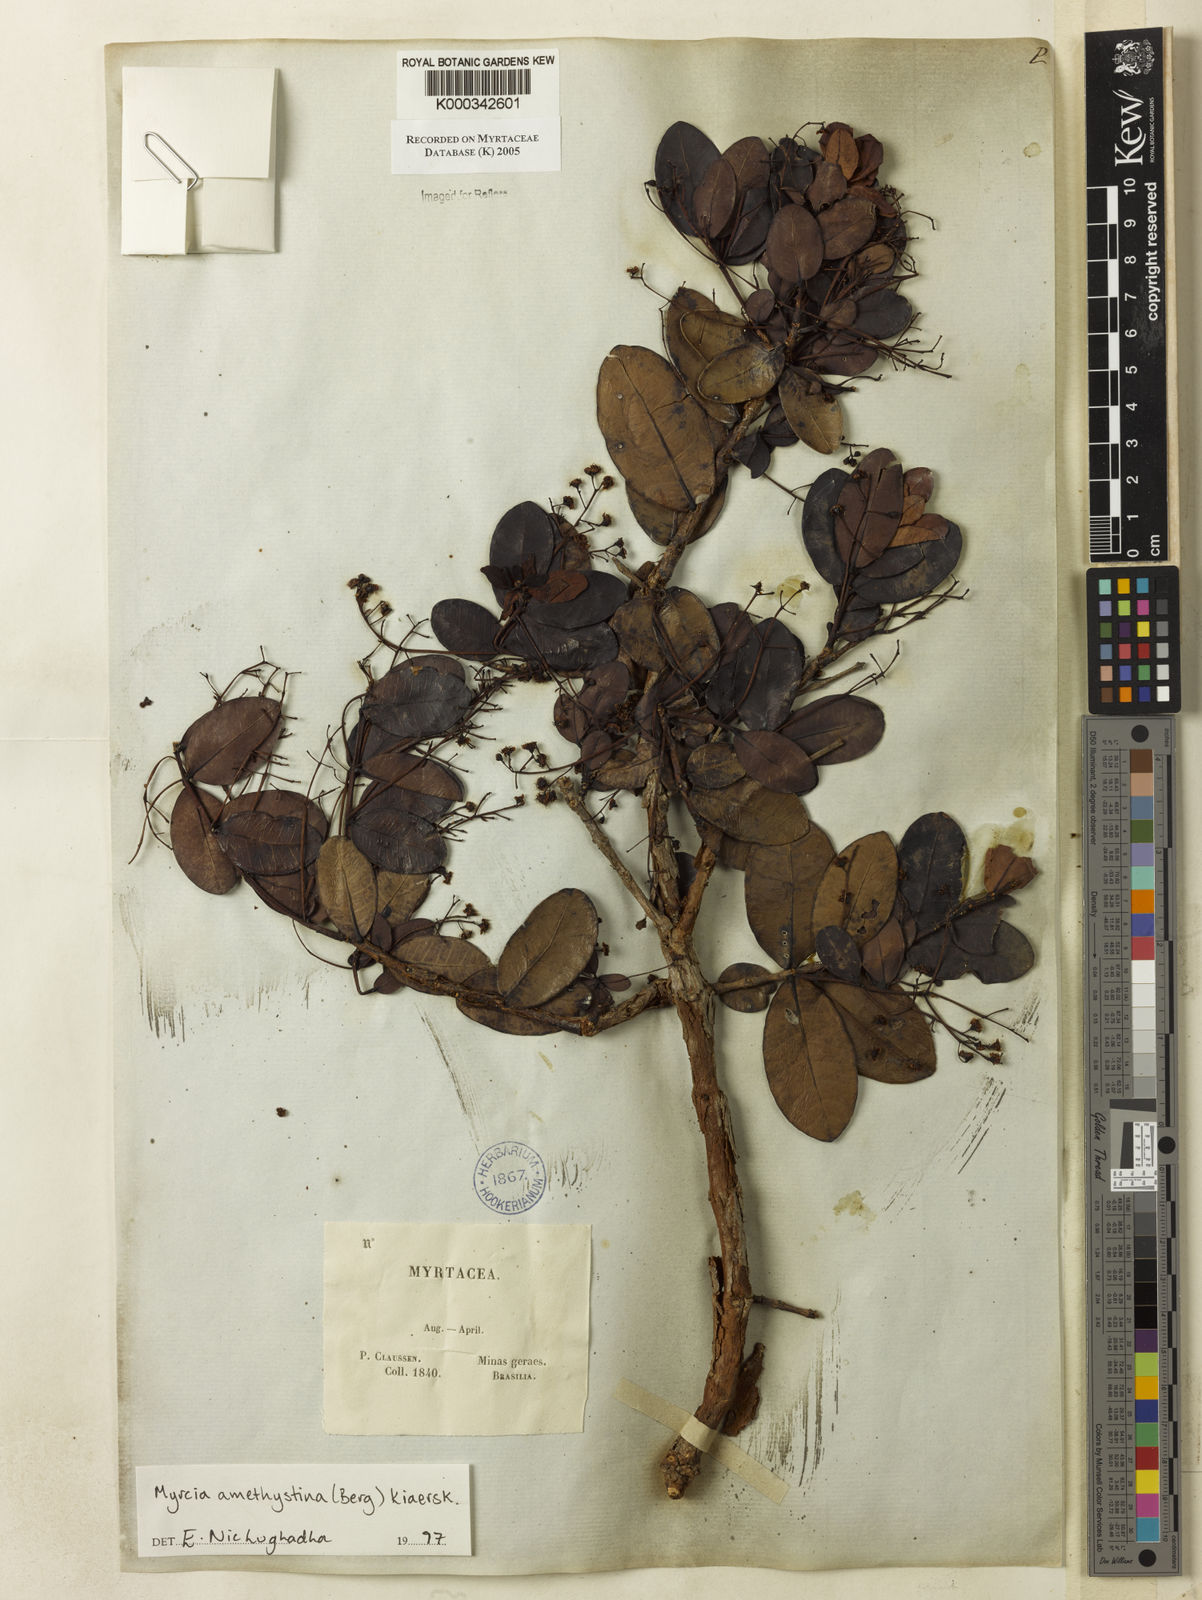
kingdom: Plantae
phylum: Tracheophyta
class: Magnoliopsida
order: Myrtales
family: Myrtaceae
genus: Myrcia
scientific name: Myrcia amethystina
